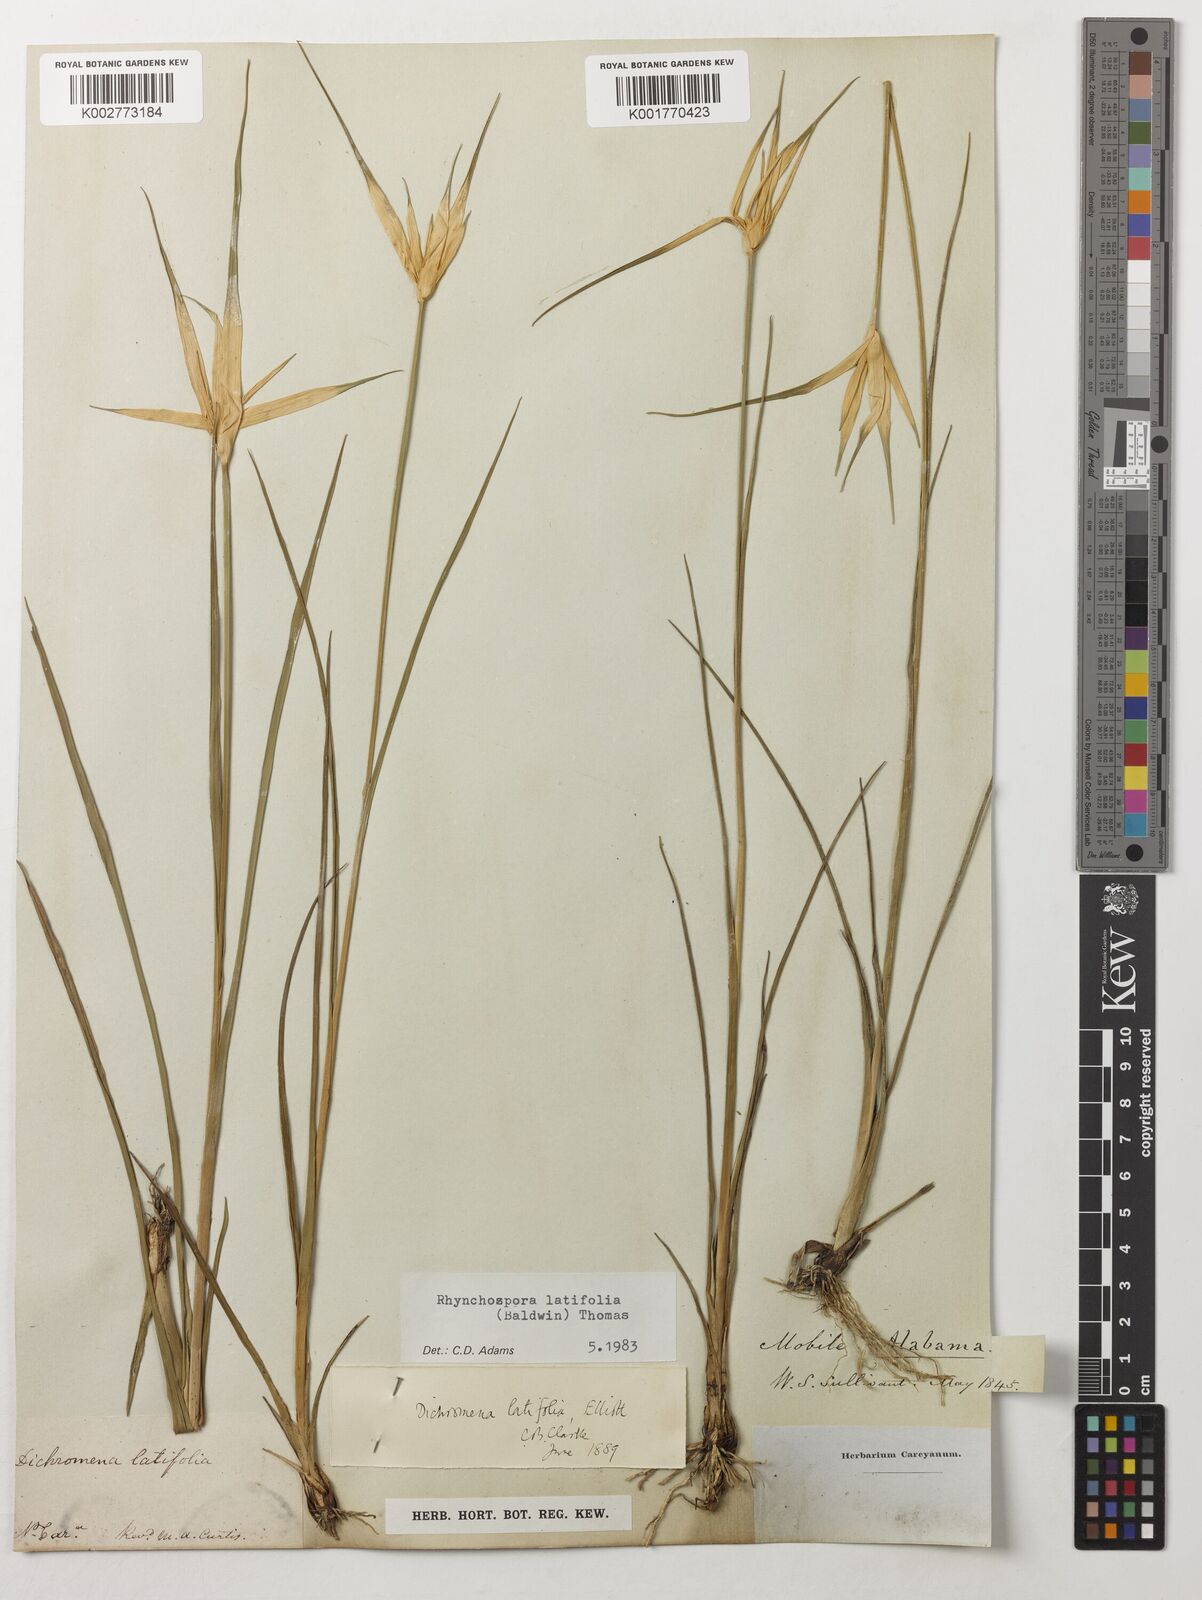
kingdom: Plantae
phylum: Tracheophyta
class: Liliopsida
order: Poales
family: Cyperaceae
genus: Rhynchospora
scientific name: Rhynchospora latifolia
